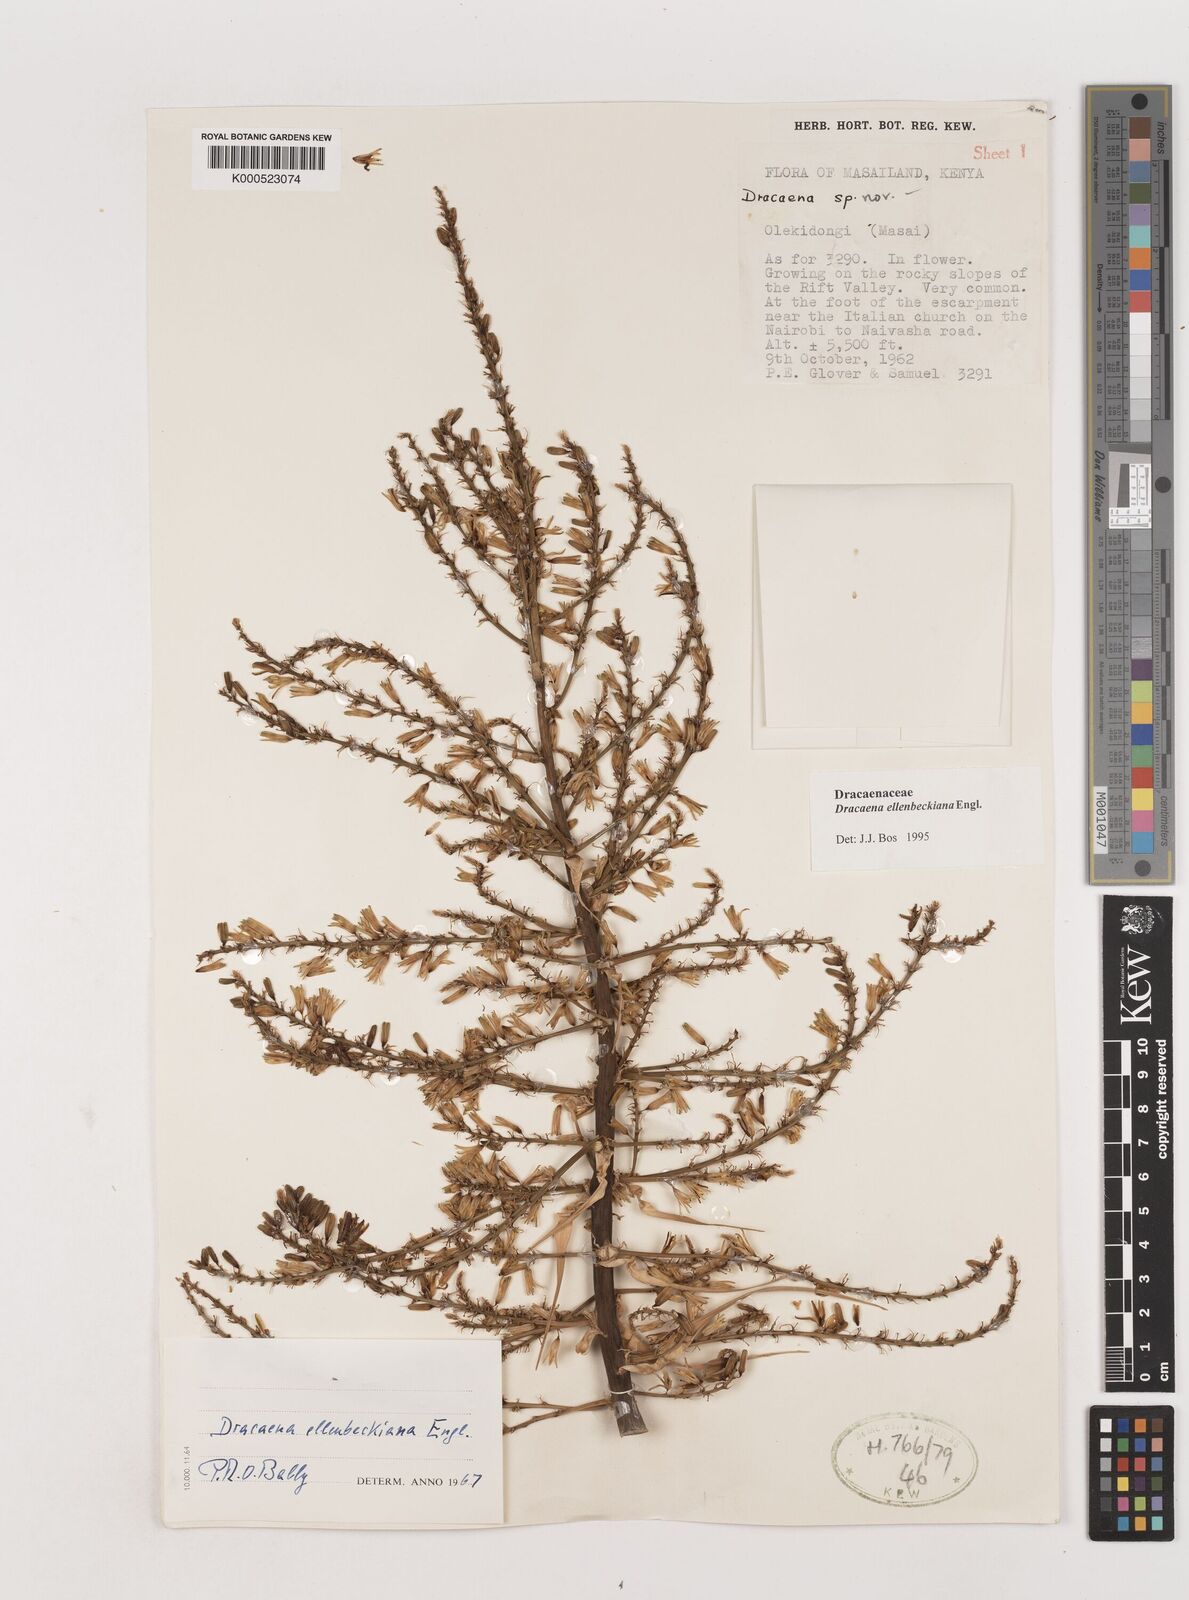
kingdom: Plantae
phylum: Tracheophyta
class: Liliopsida
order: Asparagales
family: Asparagaceae
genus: Dracaena
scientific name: Dracaena ellenbeckiana
